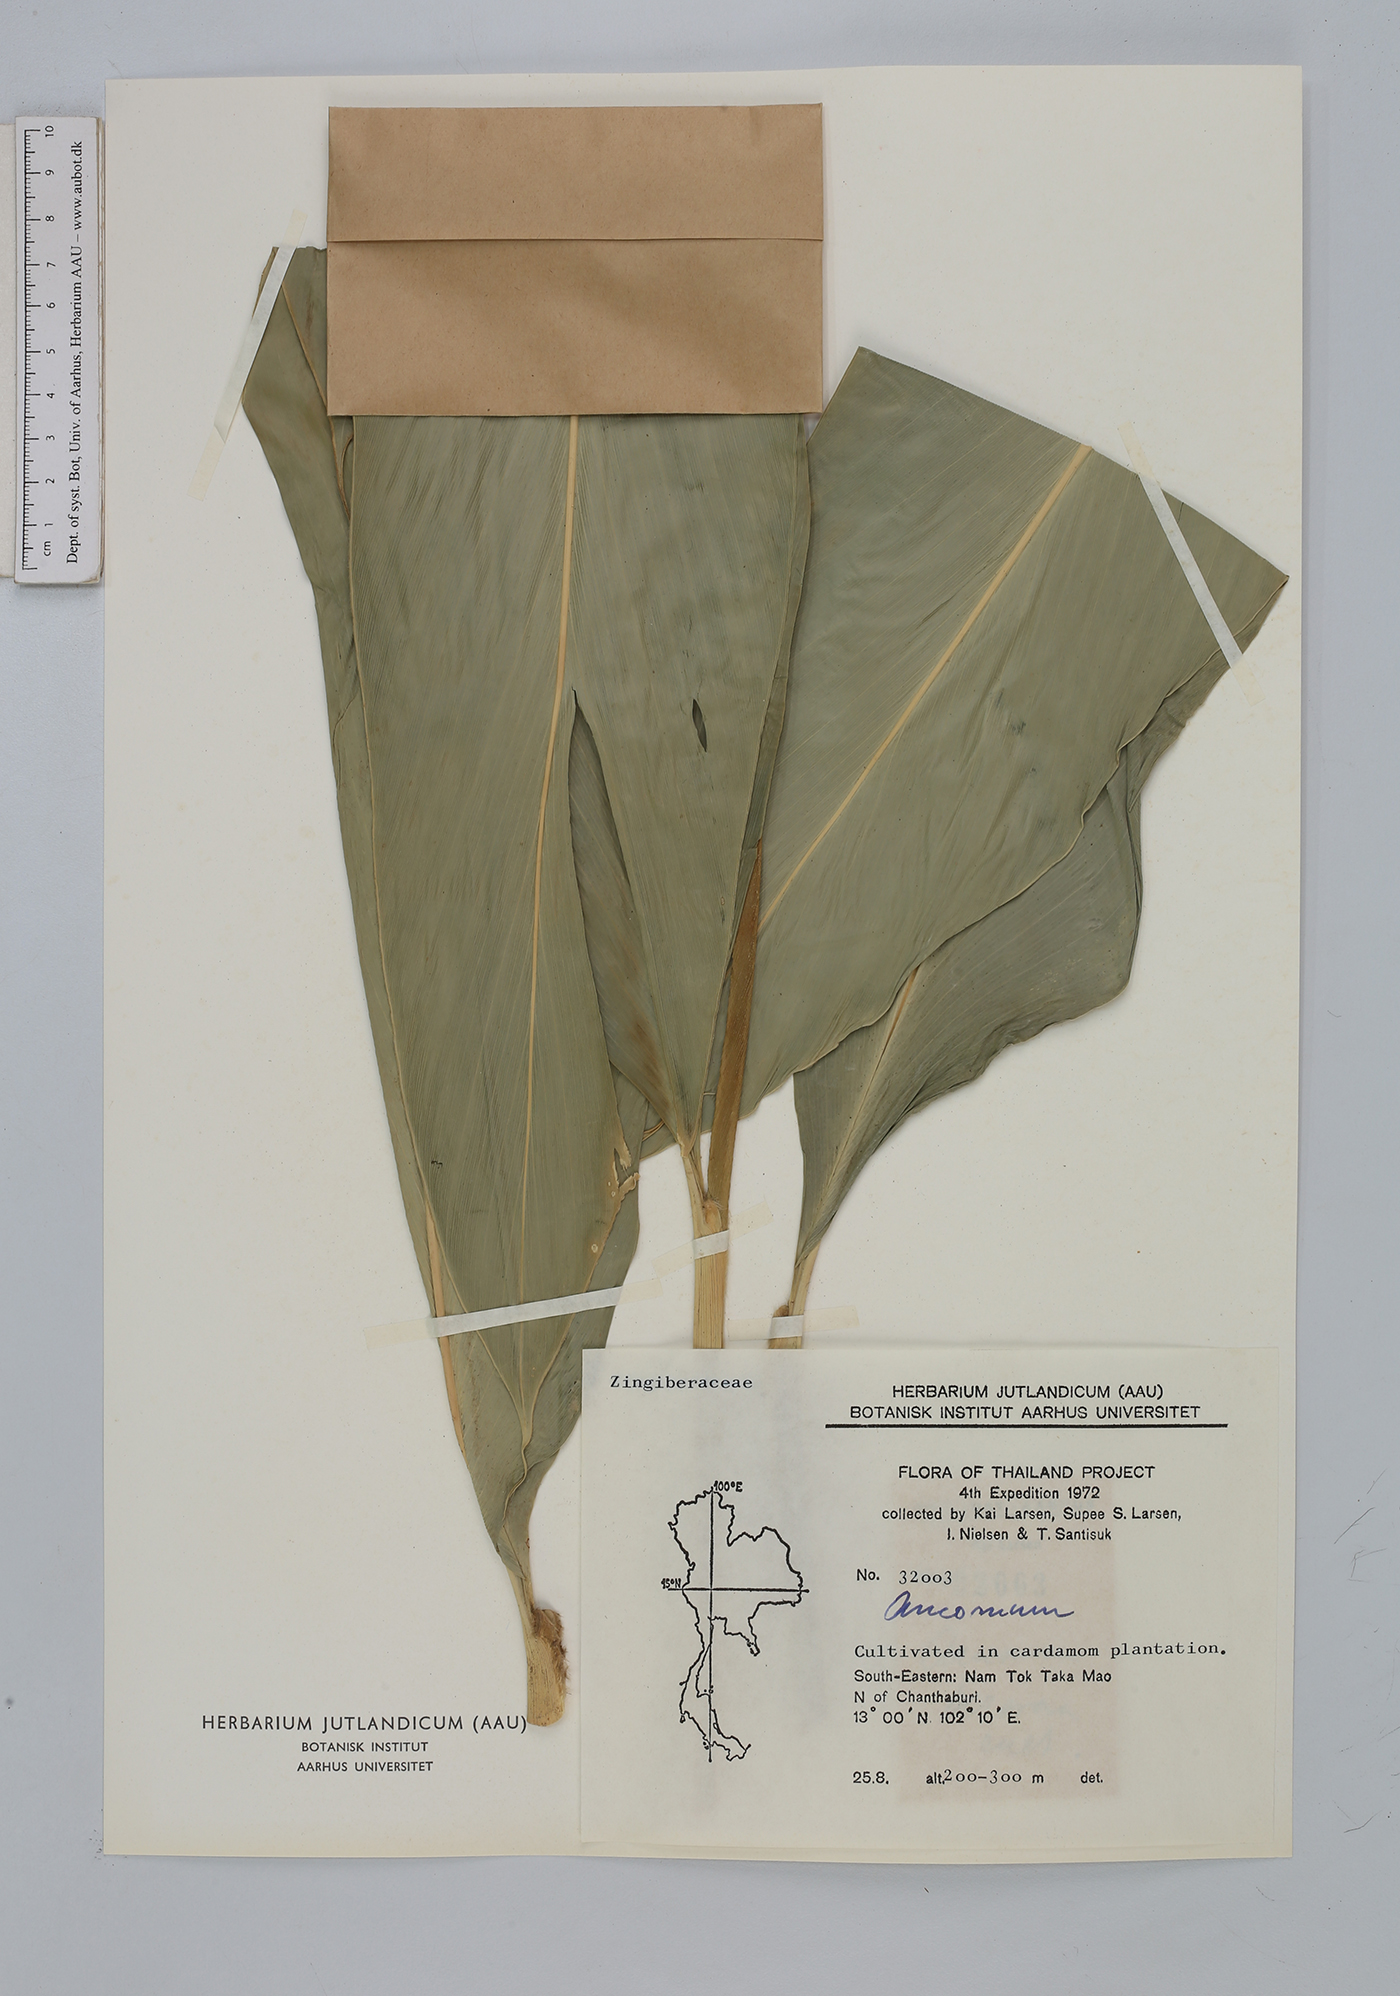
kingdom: Plantae
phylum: Tracheophyta
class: Liliopsida
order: Zingiberales
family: Zingiberaceae
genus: Amomum
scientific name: Amomum
